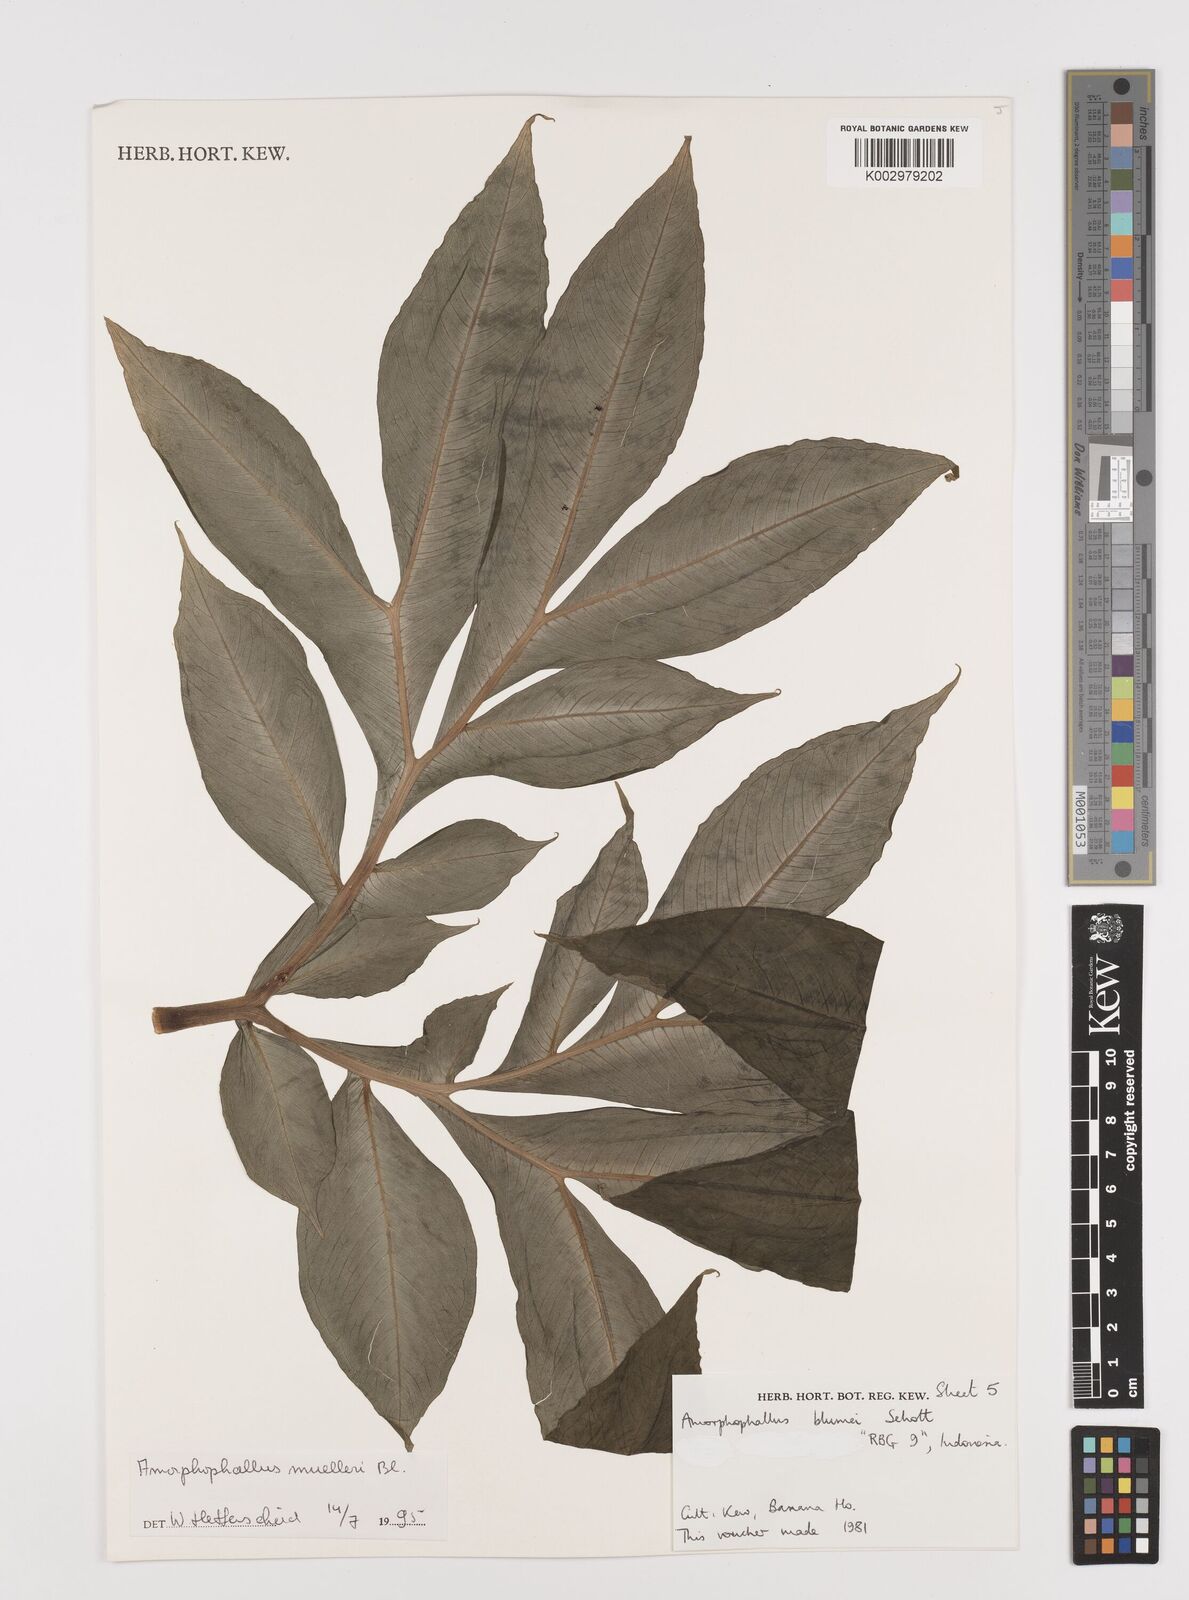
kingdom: Plantae
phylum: Tracheophyta
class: Liliopsida
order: Alismatales
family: Araceae
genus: Amorphophallus
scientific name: Amorphophallus muelleri
